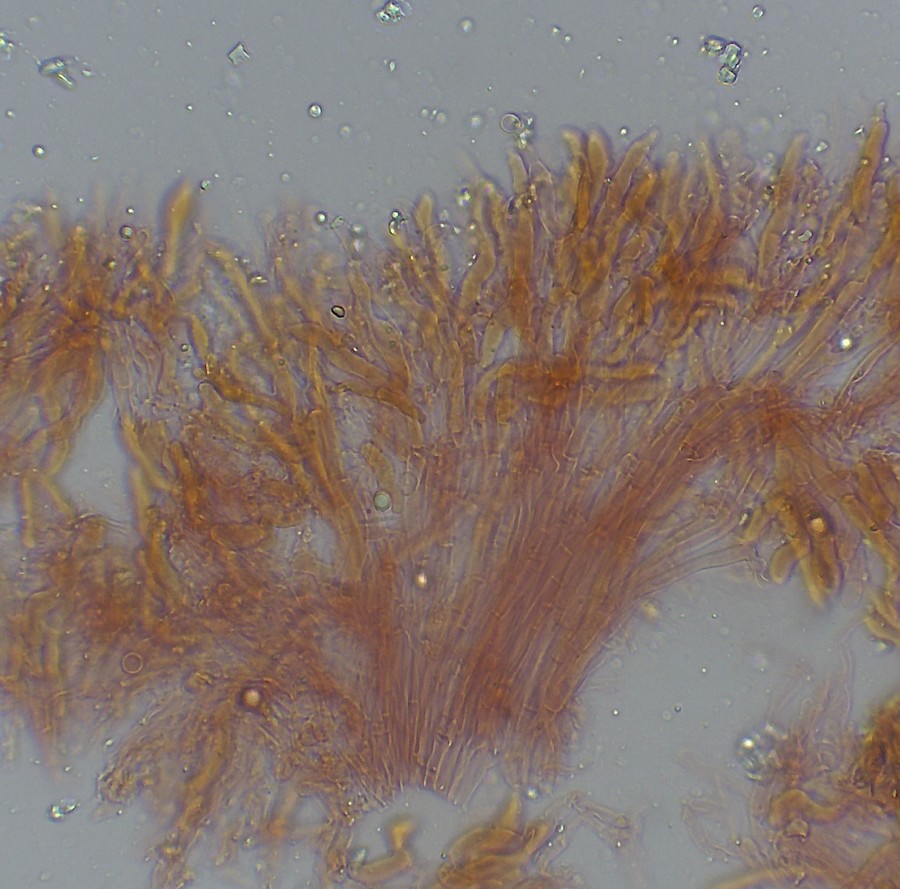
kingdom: Fungi
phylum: Basidiomycota
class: Agaricomycetes
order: Polyporales
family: Podoscyphaceae
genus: Abortiporus
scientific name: Abortiporus biennis
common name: rødmende pjalteporesvamp
